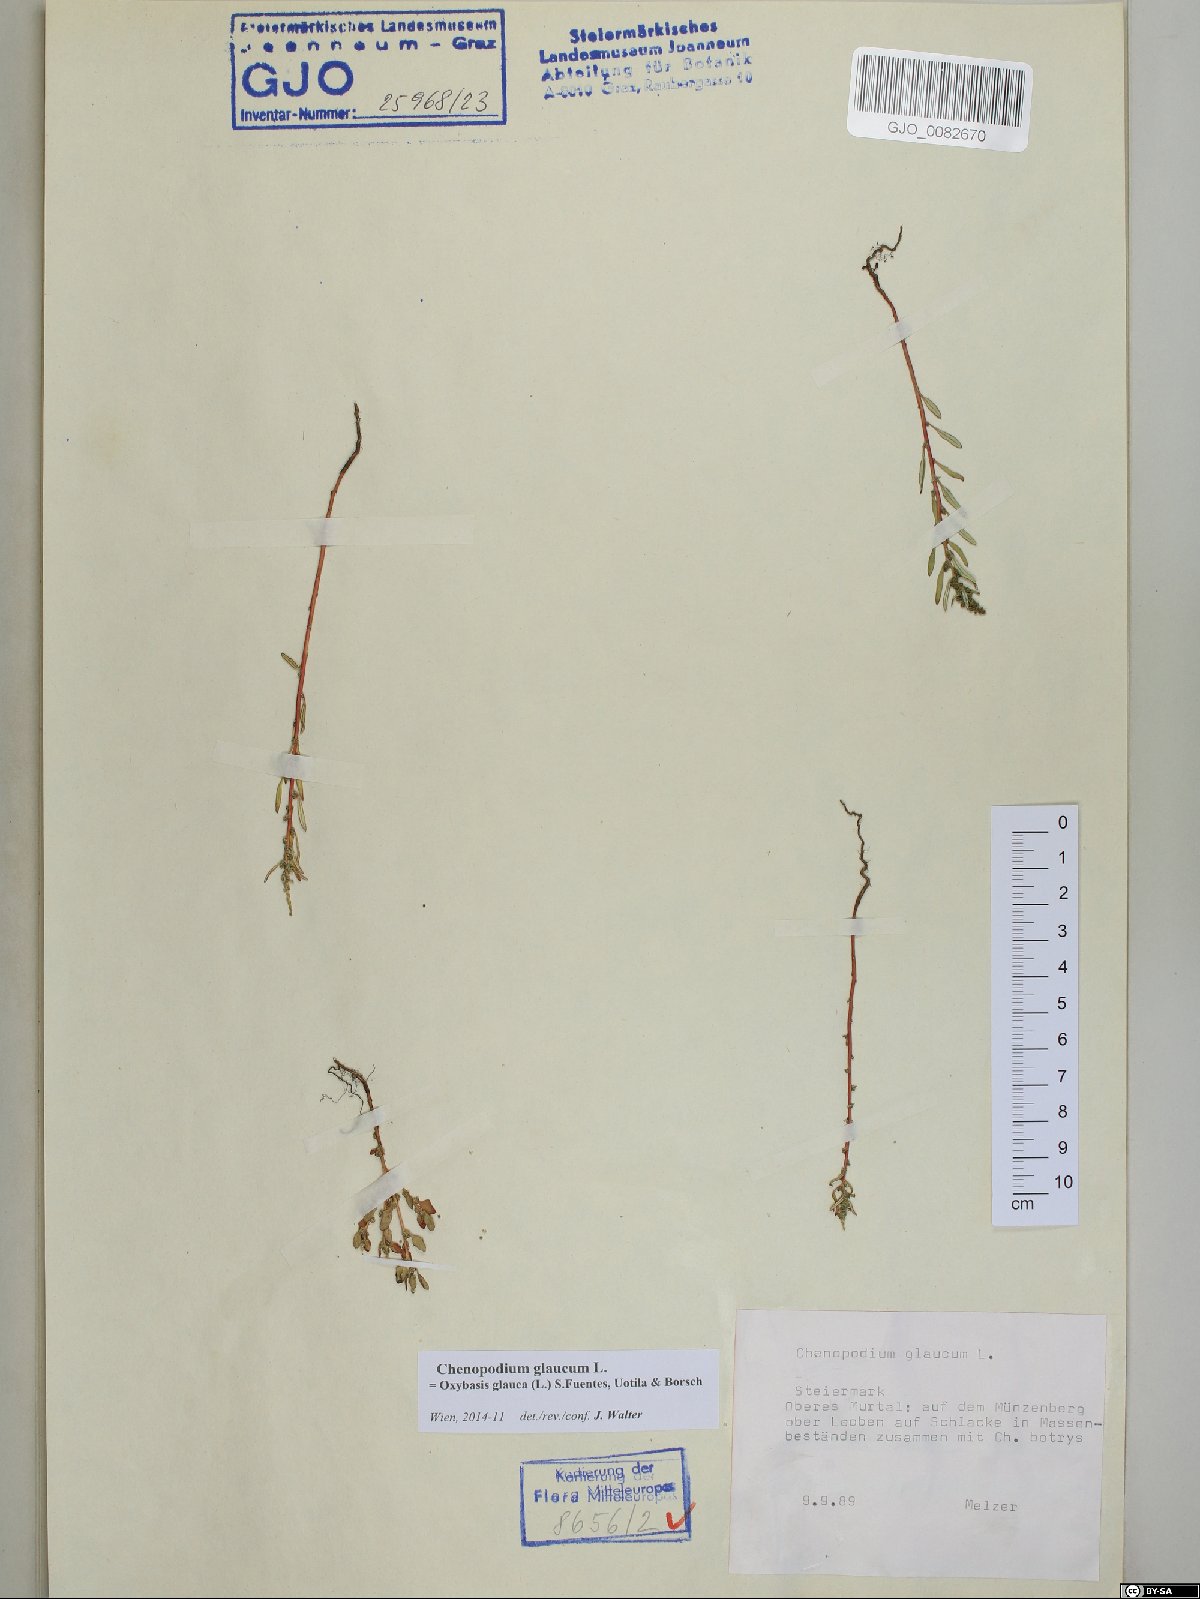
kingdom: Plantae
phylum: Tracheophyta
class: Magnoliopsida
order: Caryophyllales
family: Amaranthaceae
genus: Oxybasis
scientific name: Oxybasis glauca
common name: Glaucous goosefoot
